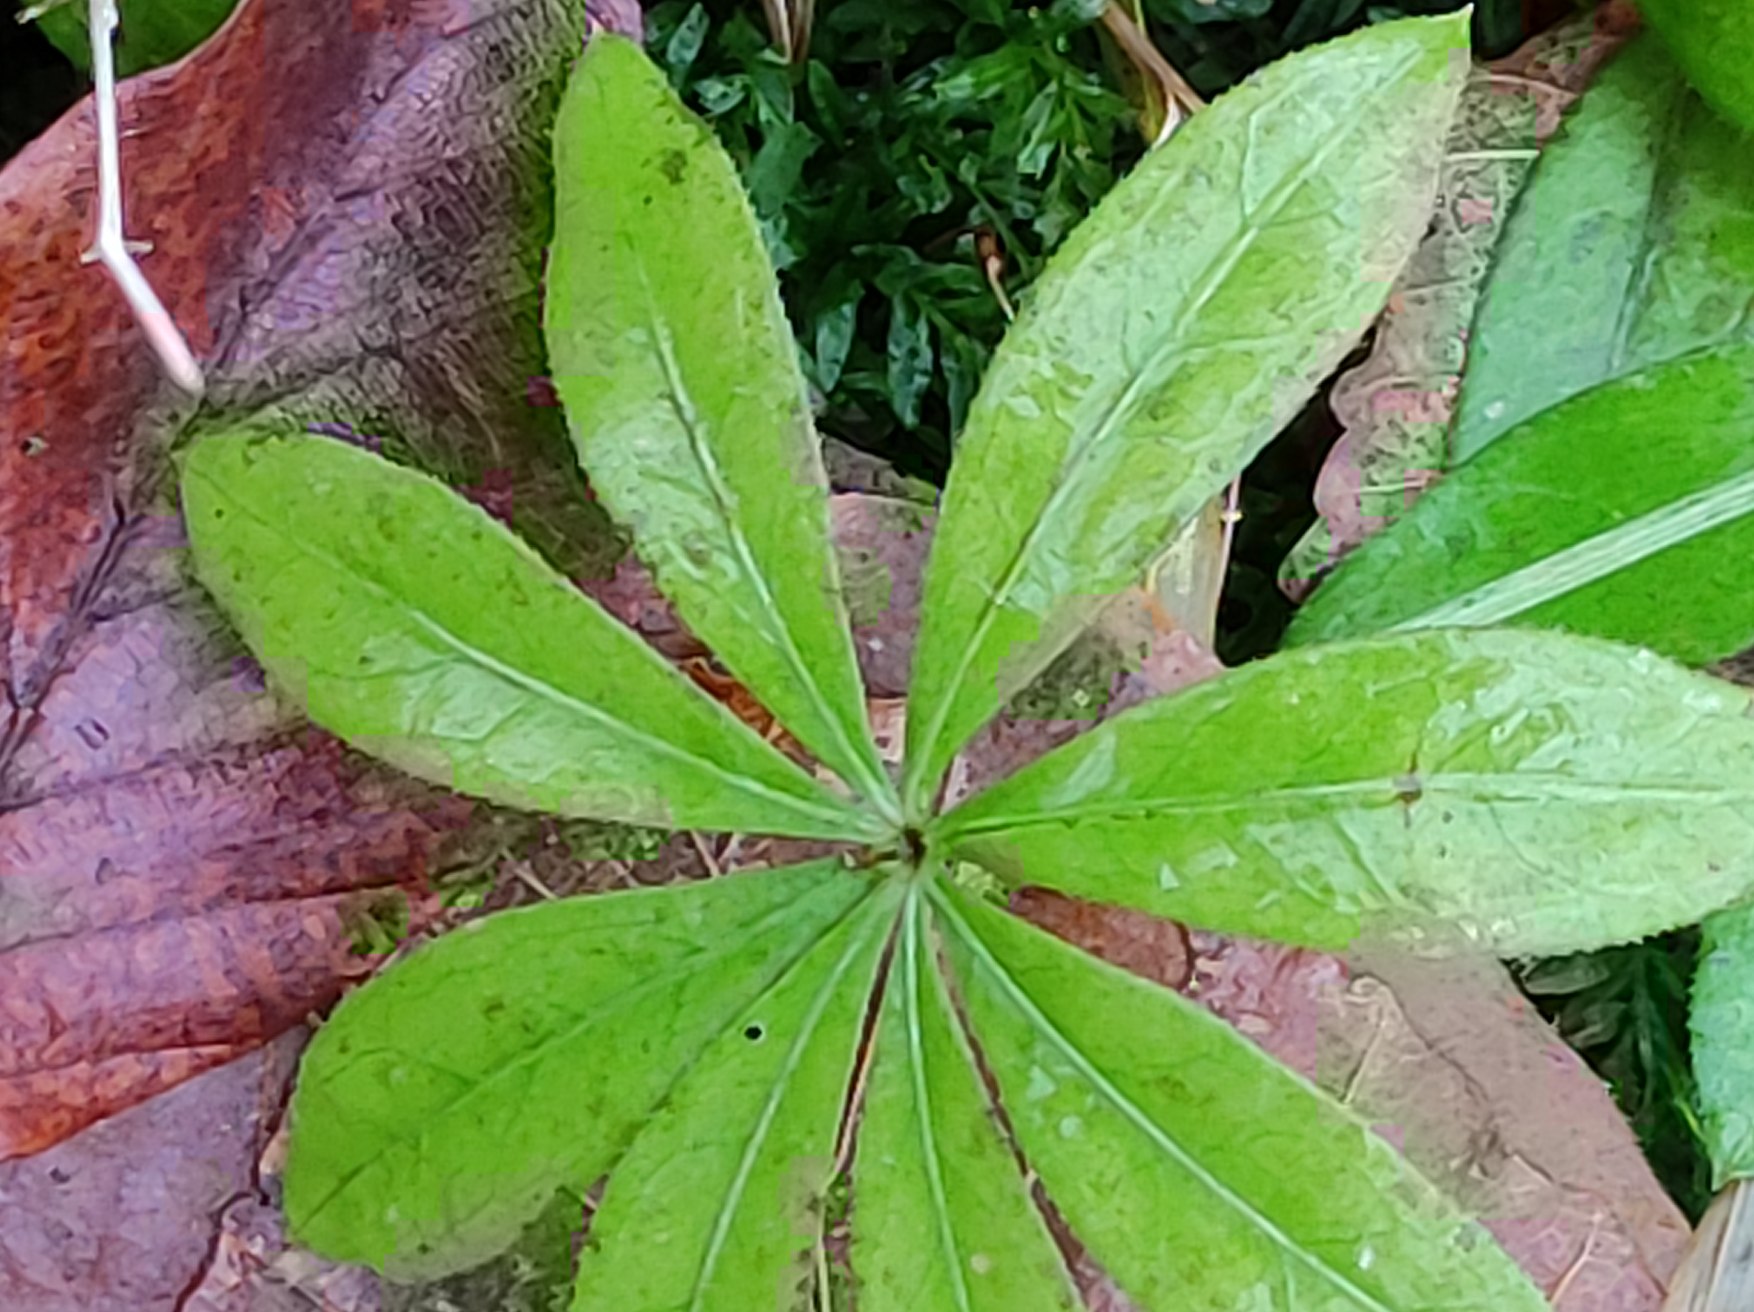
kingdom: Plantae
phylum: Tracheophyta
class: Magnoliopsida
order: Gentianales
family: Rubiaceae
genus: Galium
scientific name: Galium odoratum
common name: Skovmærke
